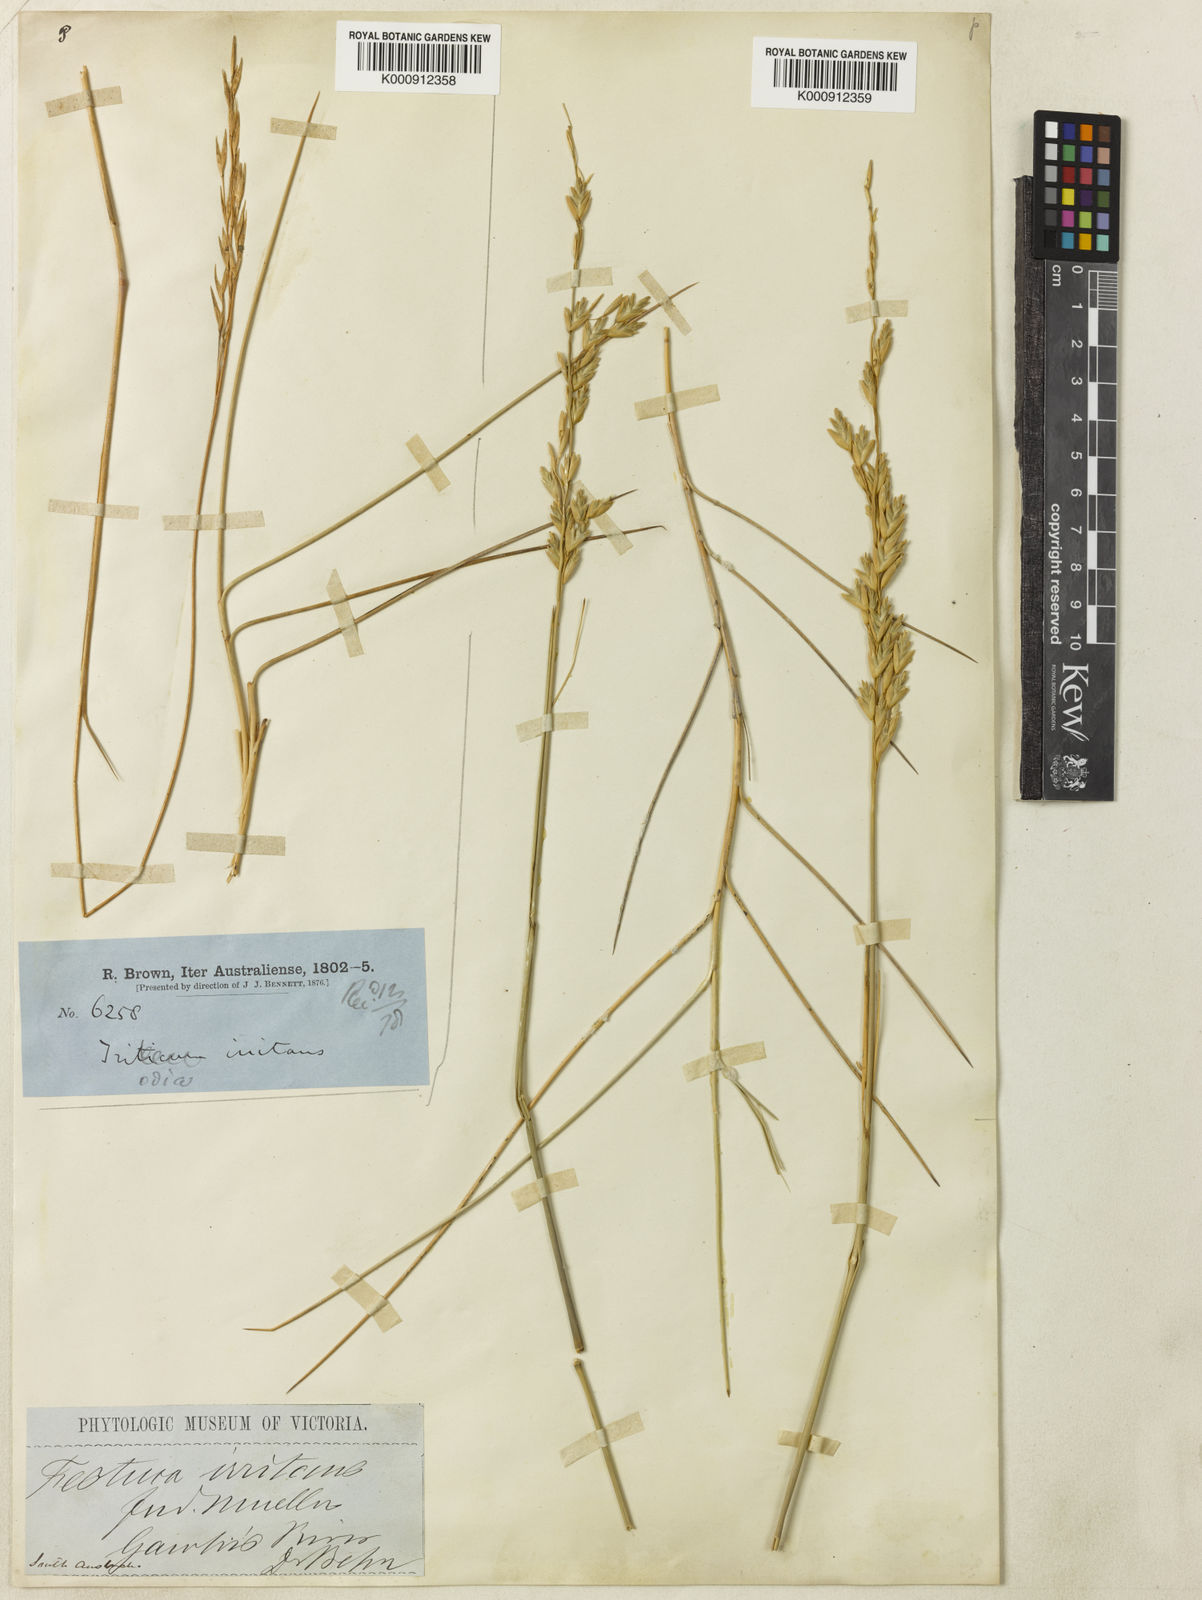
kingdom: Plantae
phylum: Tracheophyta
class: Liliopsida
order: Poales
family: Poaceae
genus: Triodia
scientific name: Triodia irritans
